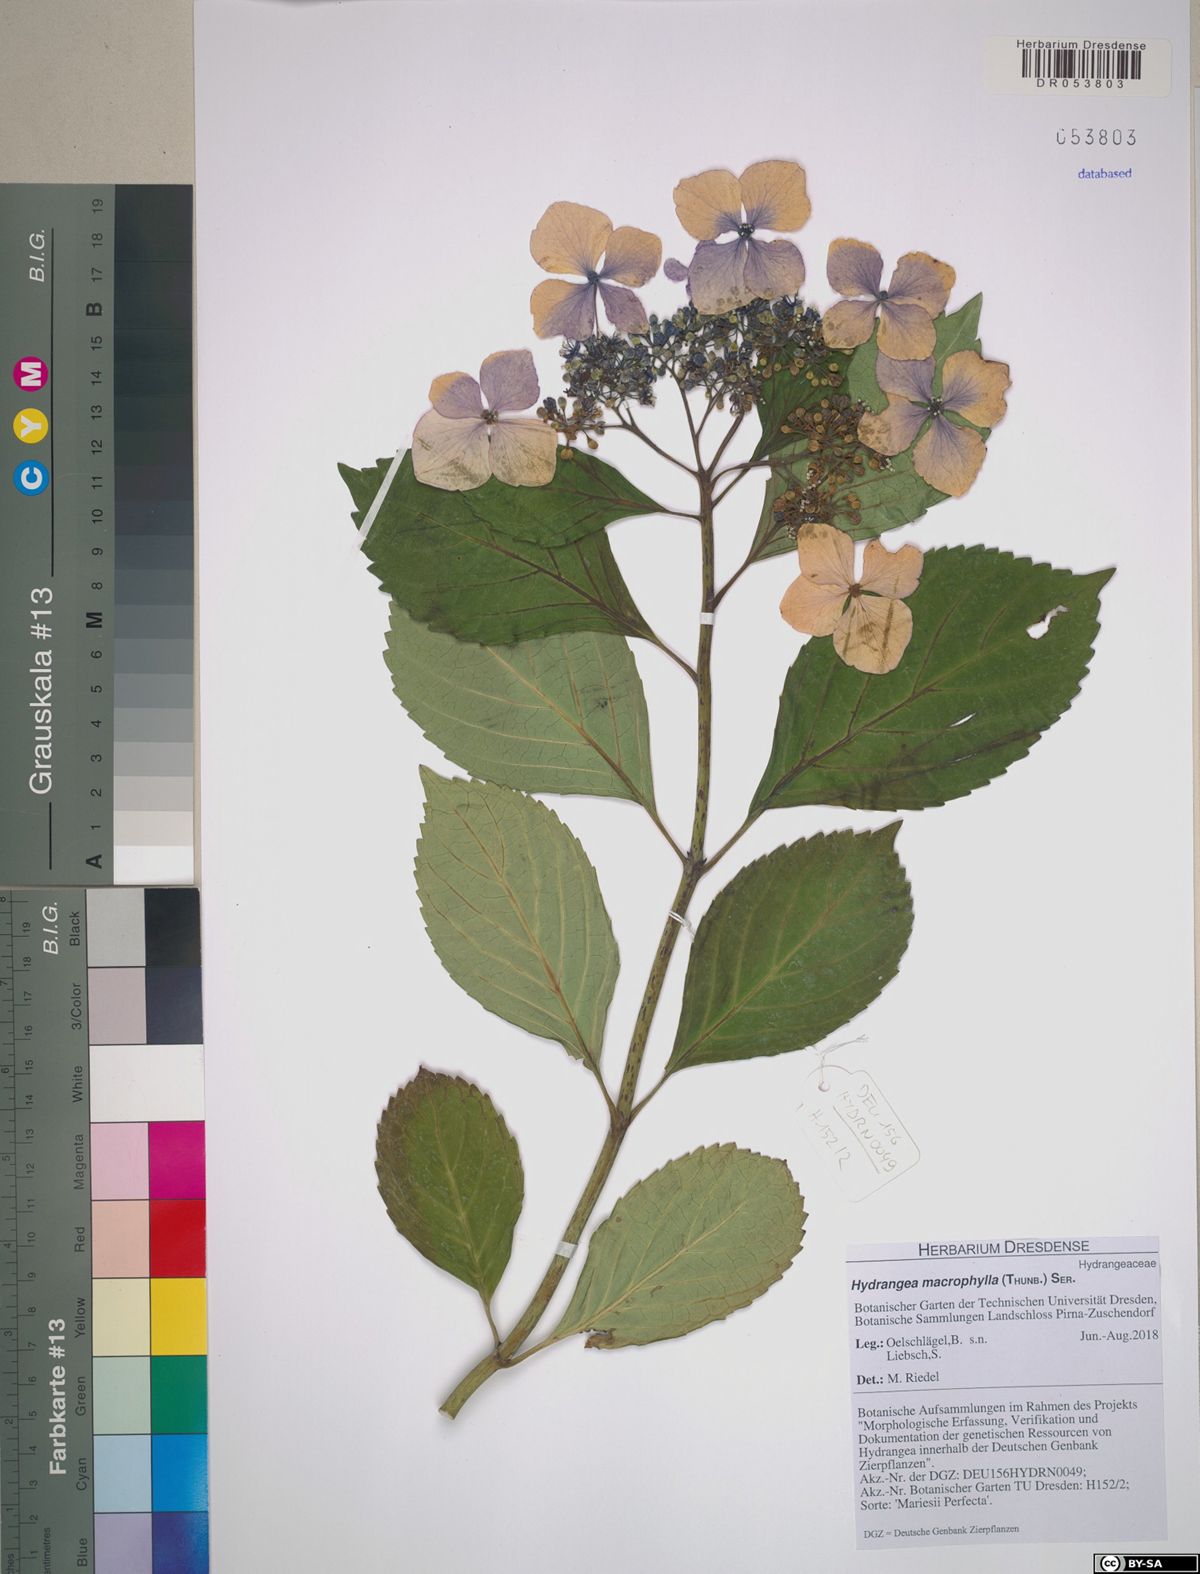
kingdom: Plantae
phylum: Tracheophyta
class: Magnoliopsida
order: Cornales
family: Hydrangeaceae
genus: Hydrangea
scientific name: Hydrangea macrophylla
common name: Hydrangea
